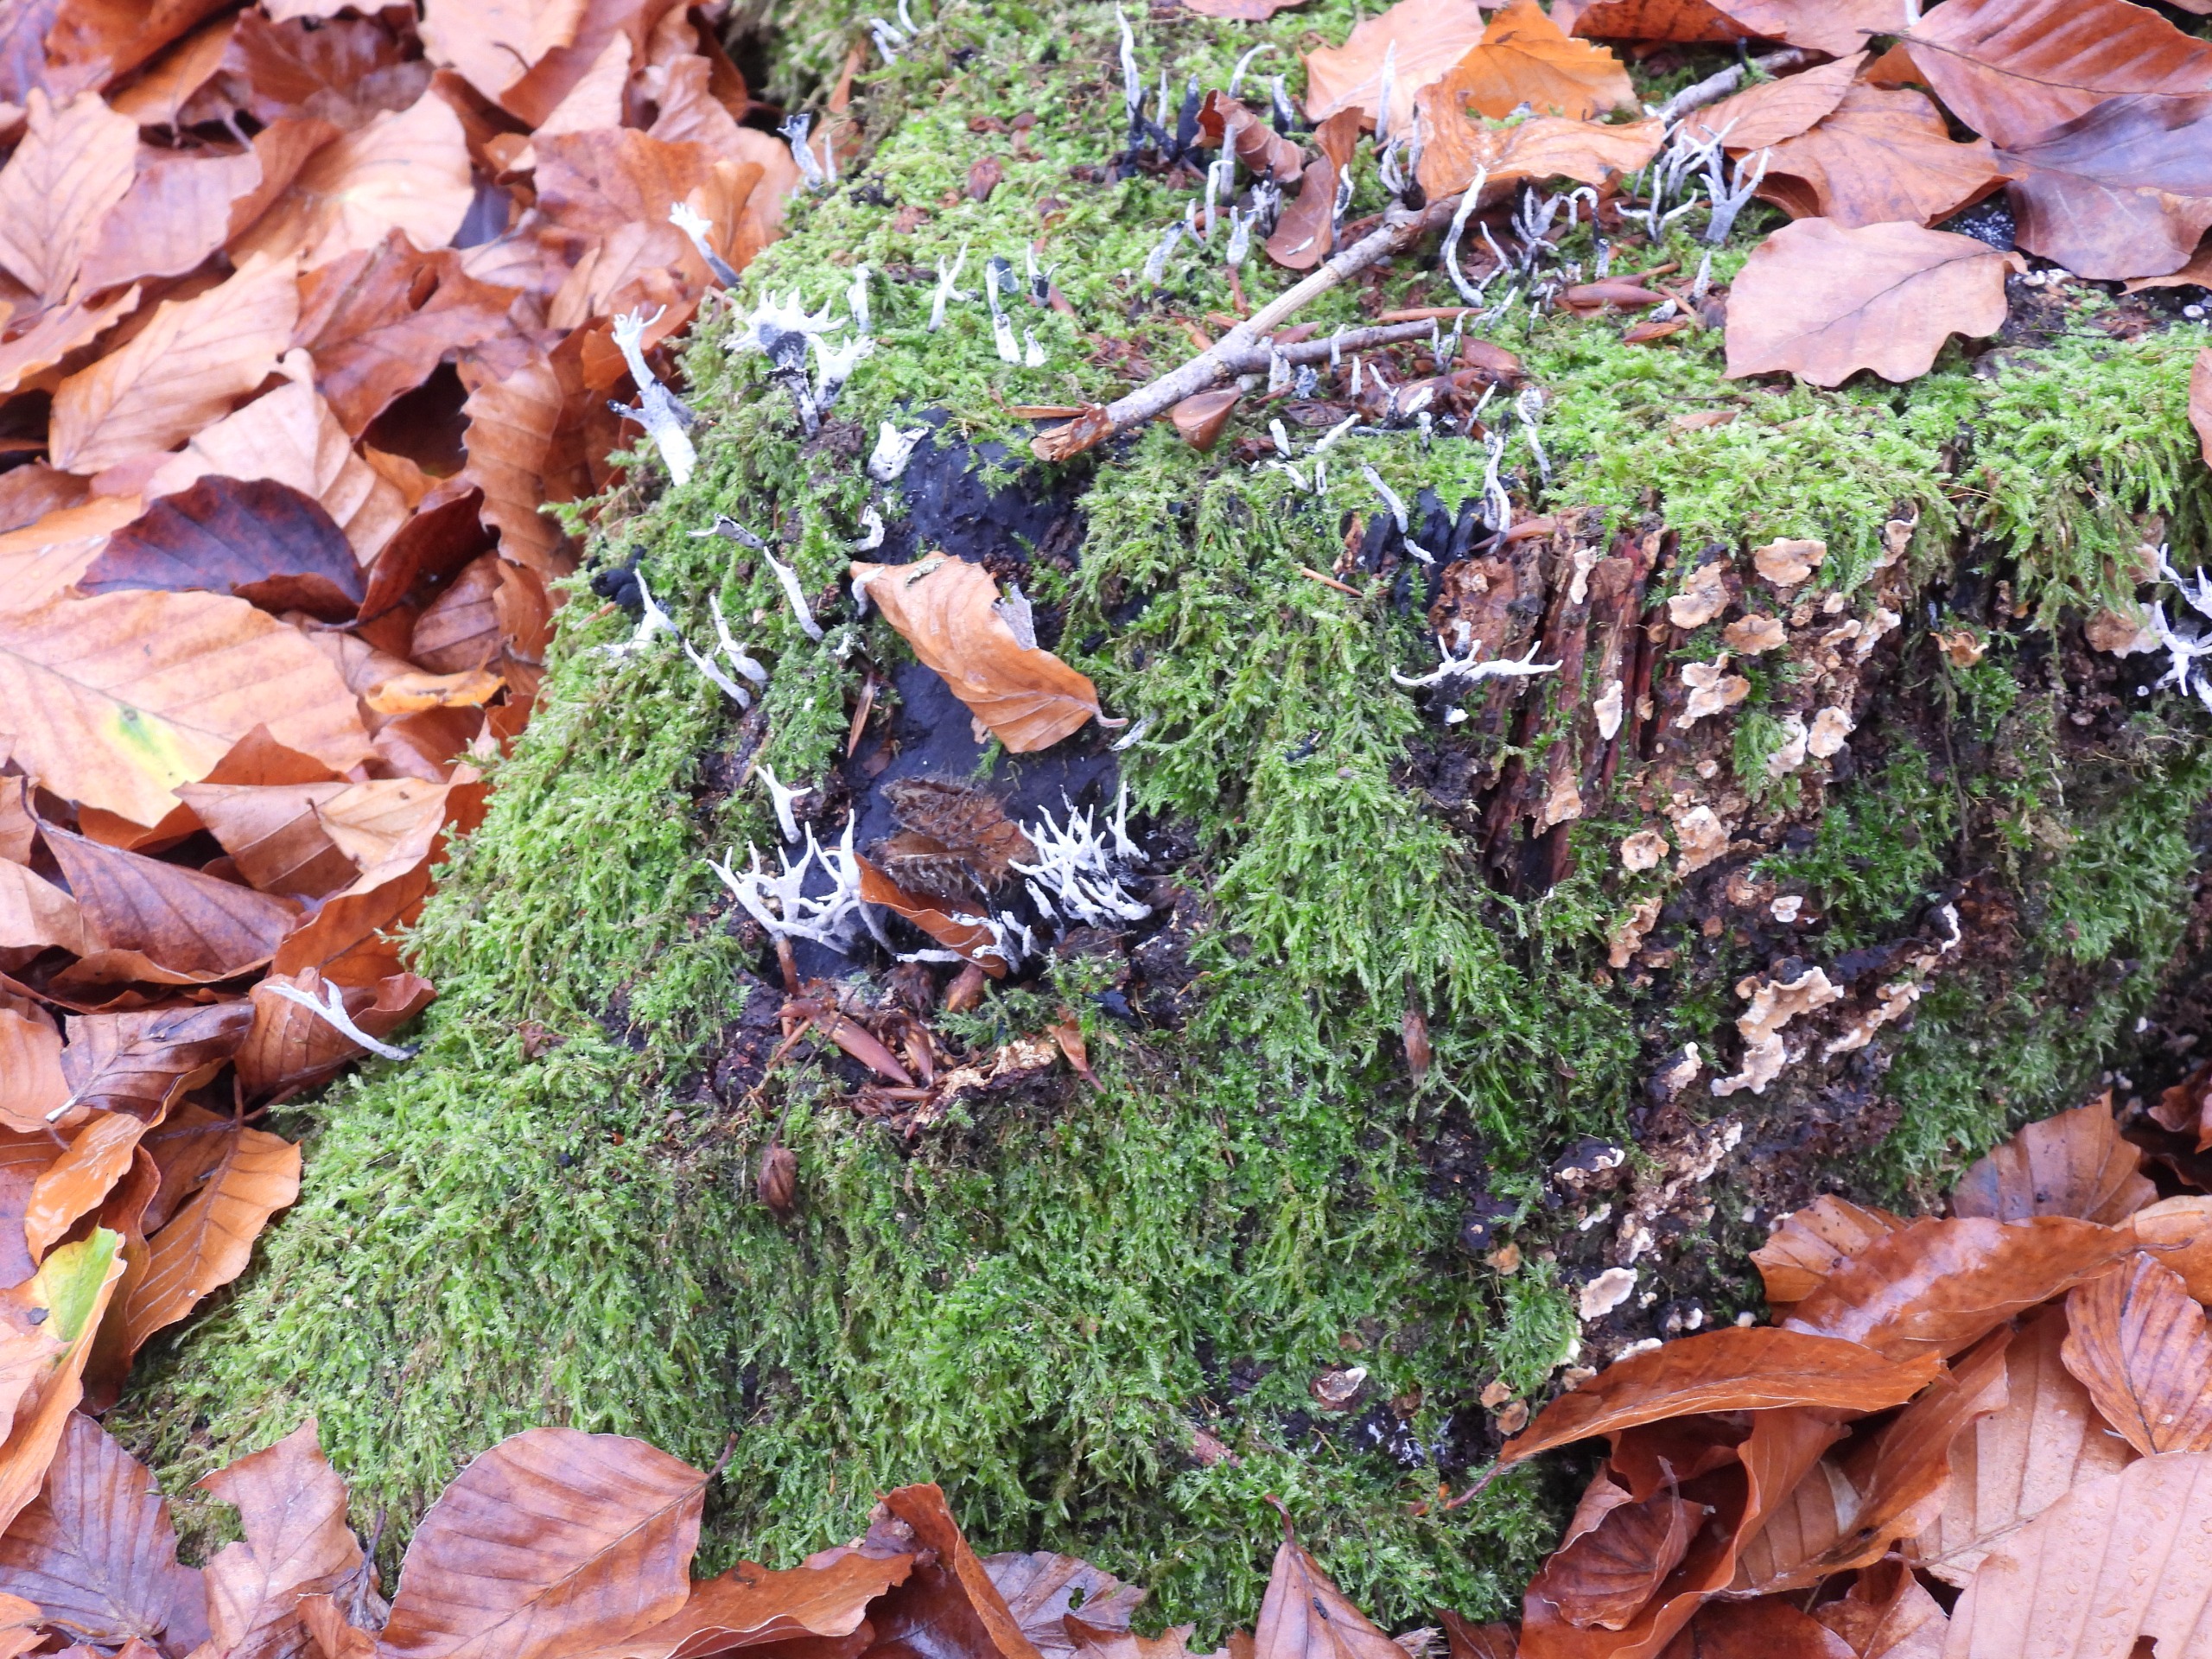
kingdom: Fungi
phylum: Ascomycota
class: Sordariomycetes
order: Xylariales
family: Xylariaceae
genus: Xylaria
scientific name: Xylaria hypoxylon
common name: Grenet stødsvamp
